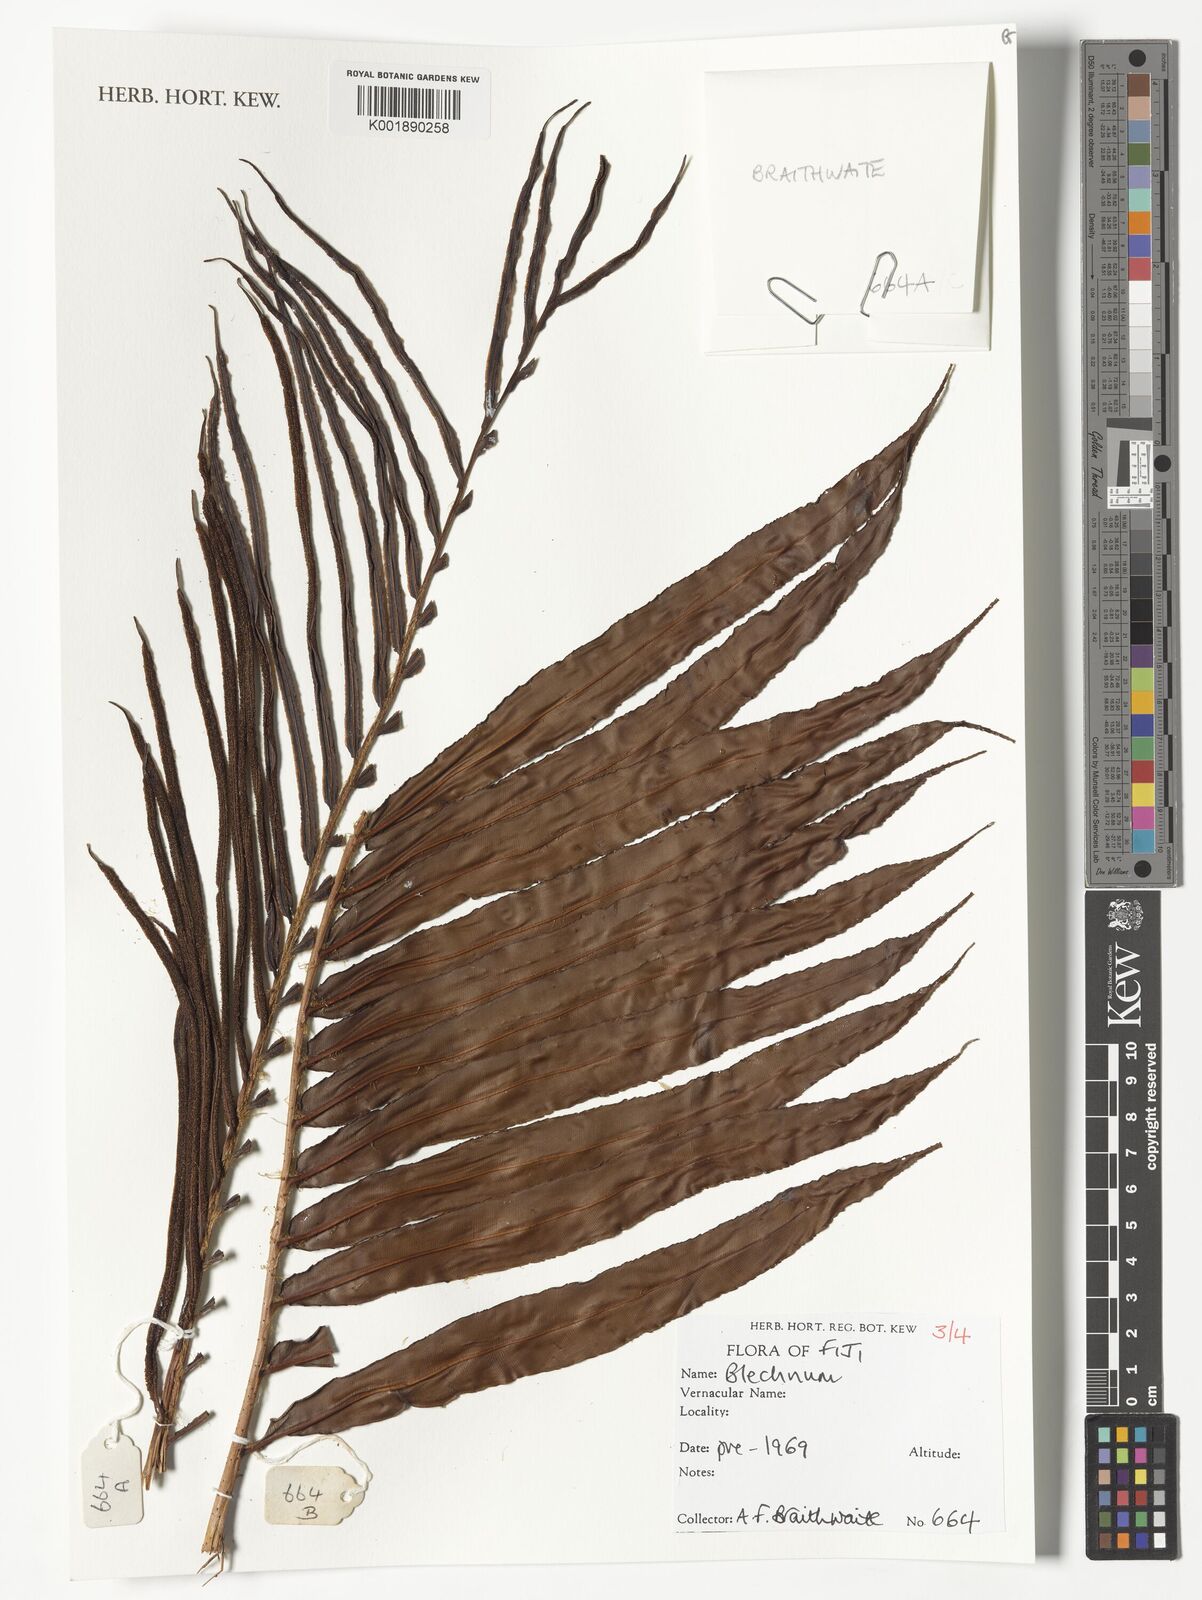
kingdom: Plantae
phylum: Tracheophyta
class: Polypodiopsida
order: Polypodiales
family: Blechnaceae
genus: Blechnum
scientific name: Blechnum
